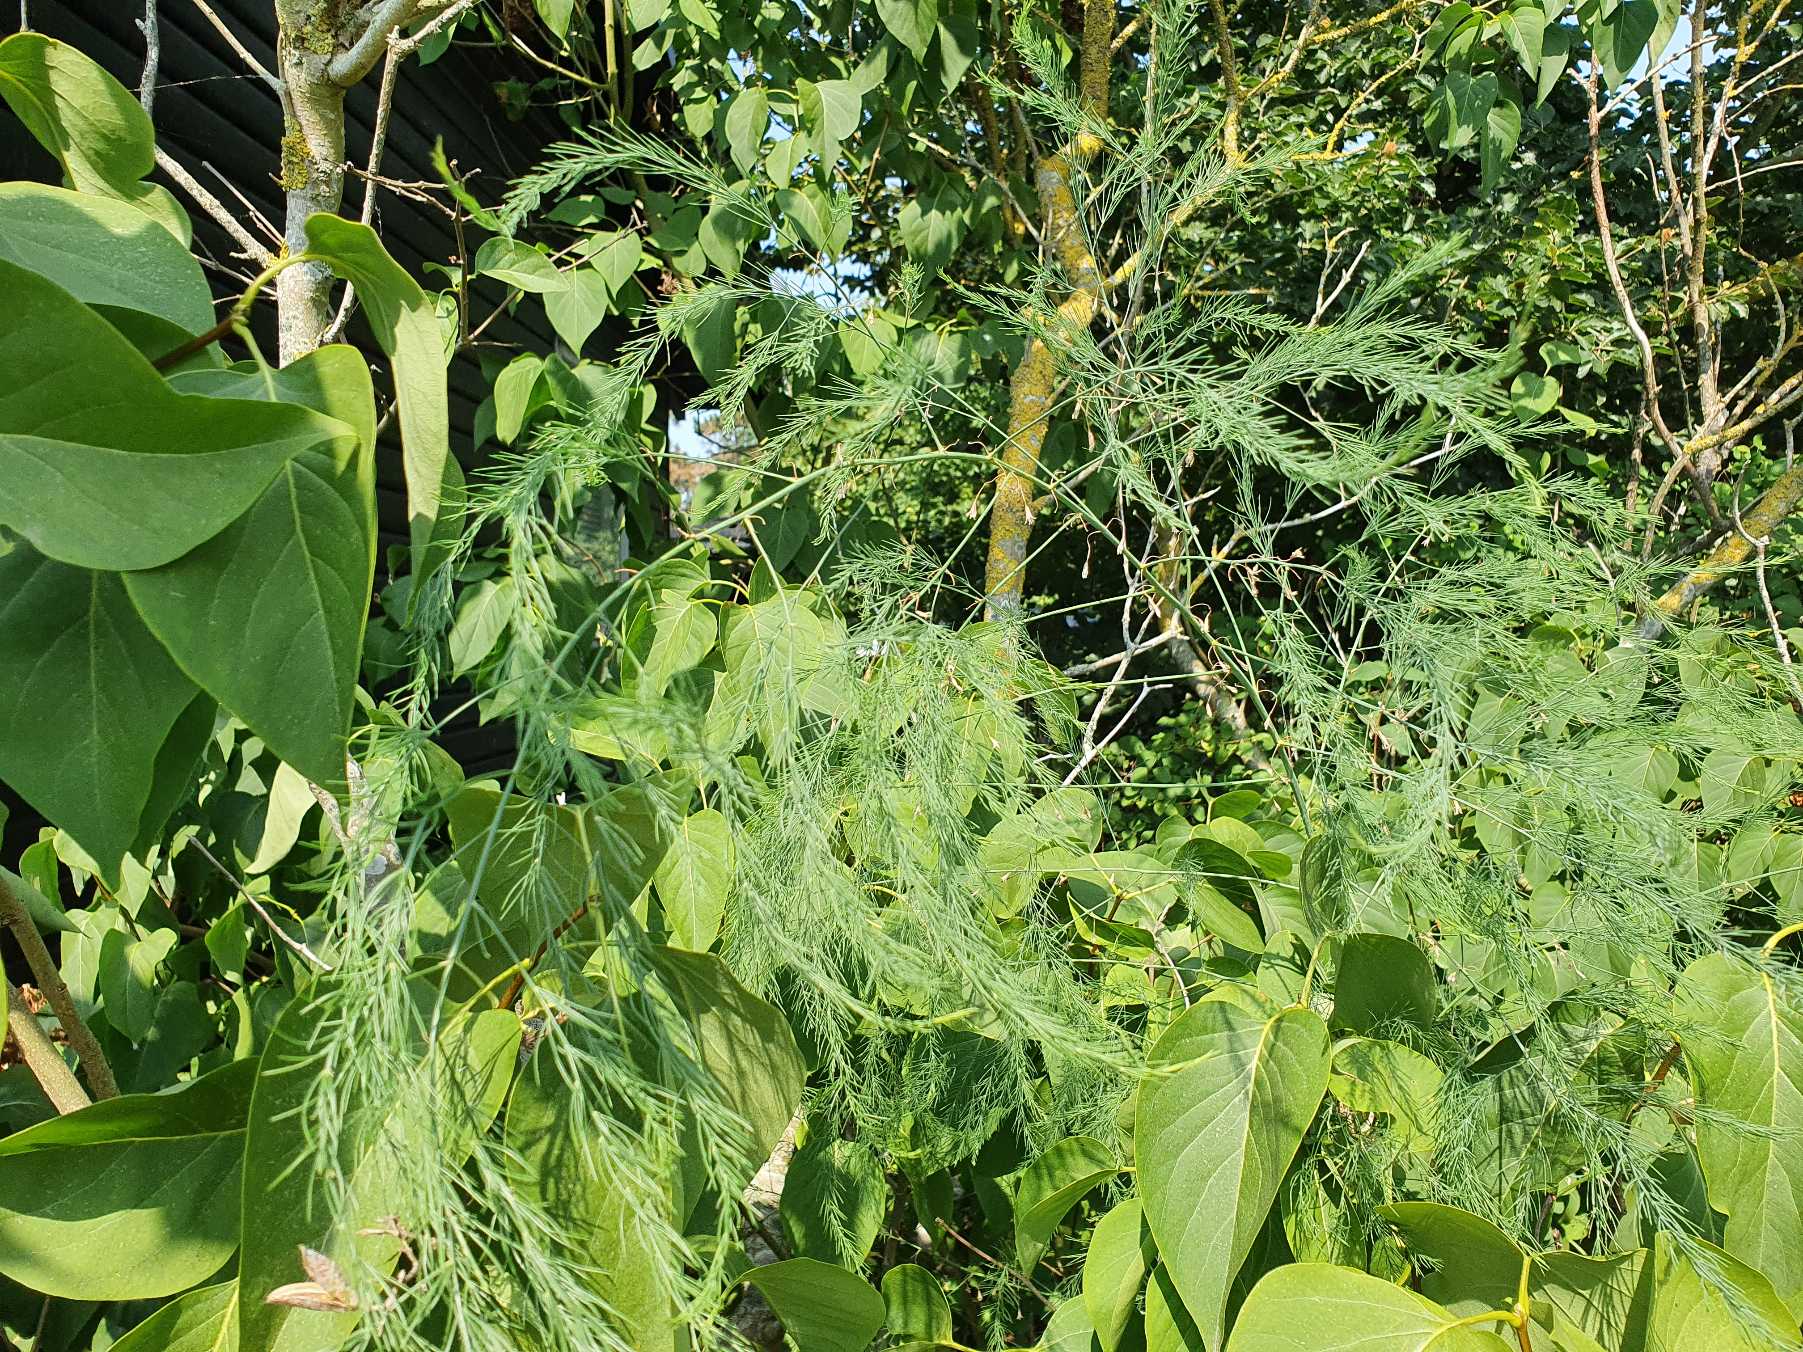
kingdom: Plantae
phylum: Tracheophyta
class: Liliopsida
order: Asparagales
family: Asparagaceae
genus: Asparagus
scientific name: Asparagus officinalis
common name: Asparges
